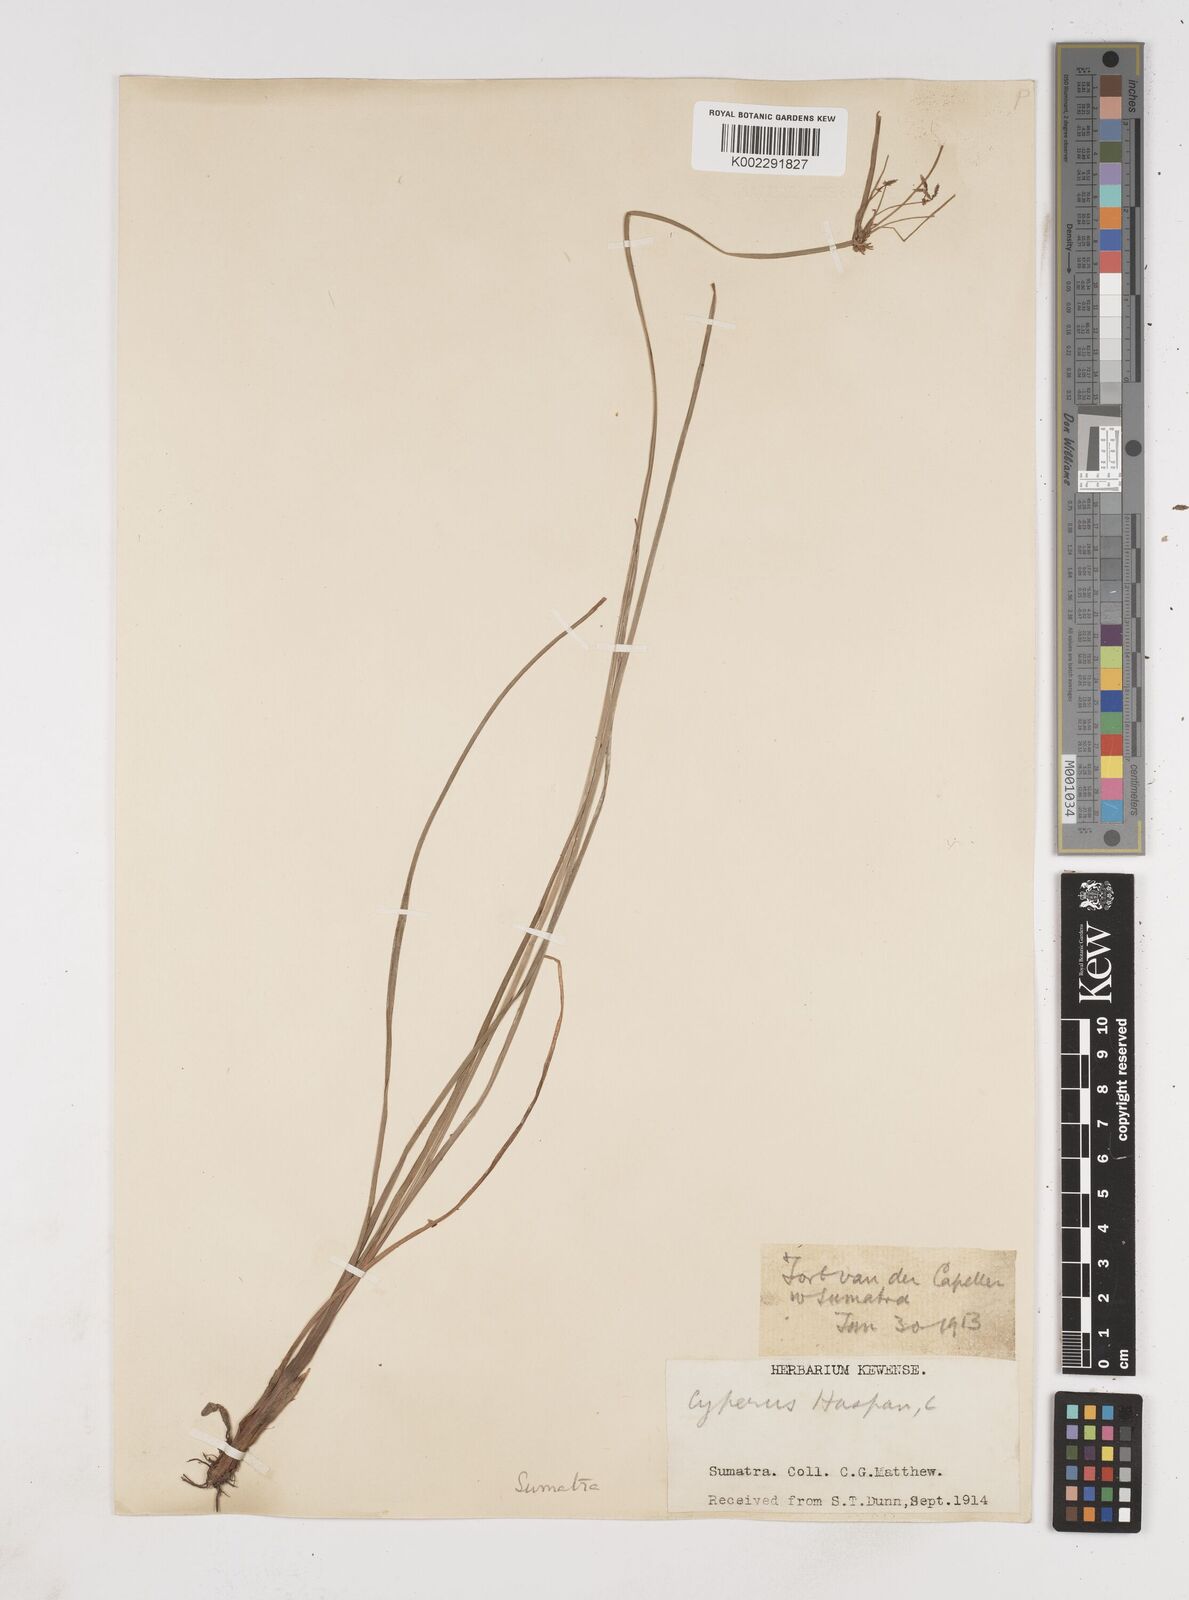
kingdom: Plantae
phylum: Tracheophyta
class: Liliopsida
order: Poales
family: Cyperaceae
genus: Cyperus
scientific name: Cyperus haspan
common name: Haspan flatsedge
